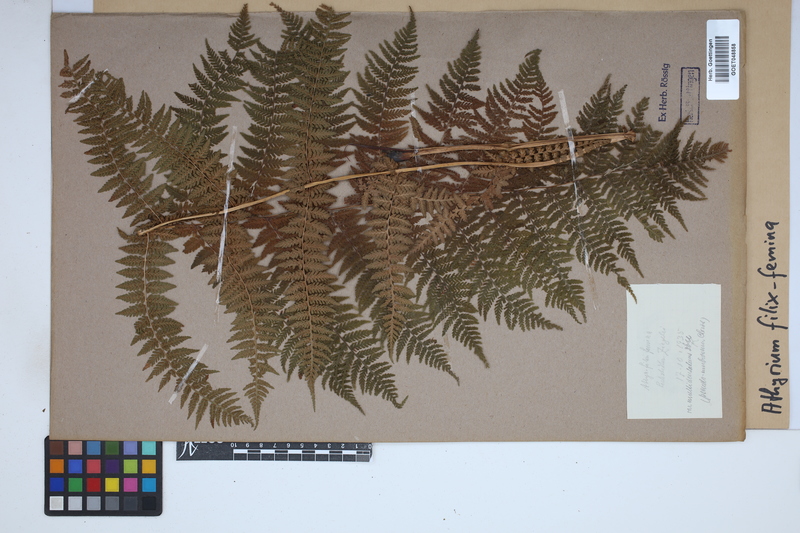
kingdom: Plantae
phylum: Tracheophyta
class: Polypodiopsida
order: Polypodiales
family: Athyriaceae
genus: Athyrium
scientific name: Athyrium filix-femina
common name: Lady fern
